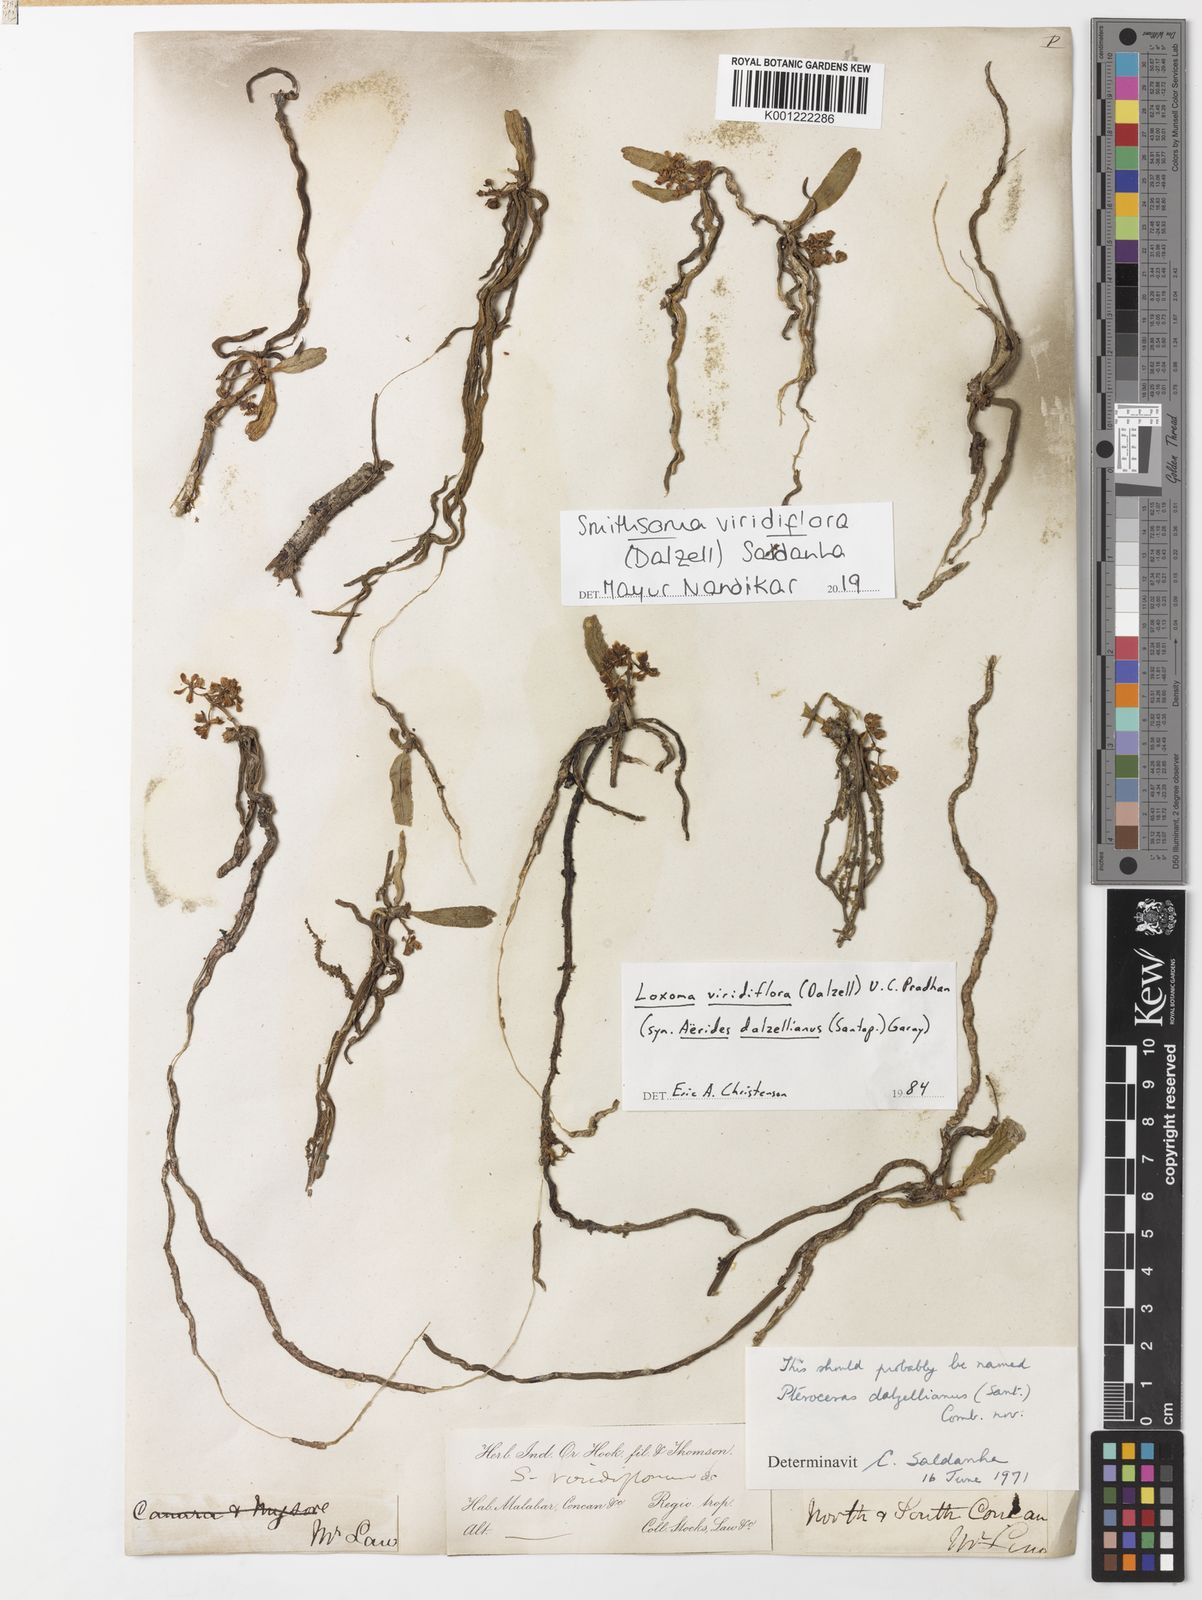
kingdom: Plantae
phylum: Tracheophyta
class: Liliopsida
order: Asparagales
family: Orchidaceae
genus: Smithsonia
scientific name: Smithsonia viridiflora
